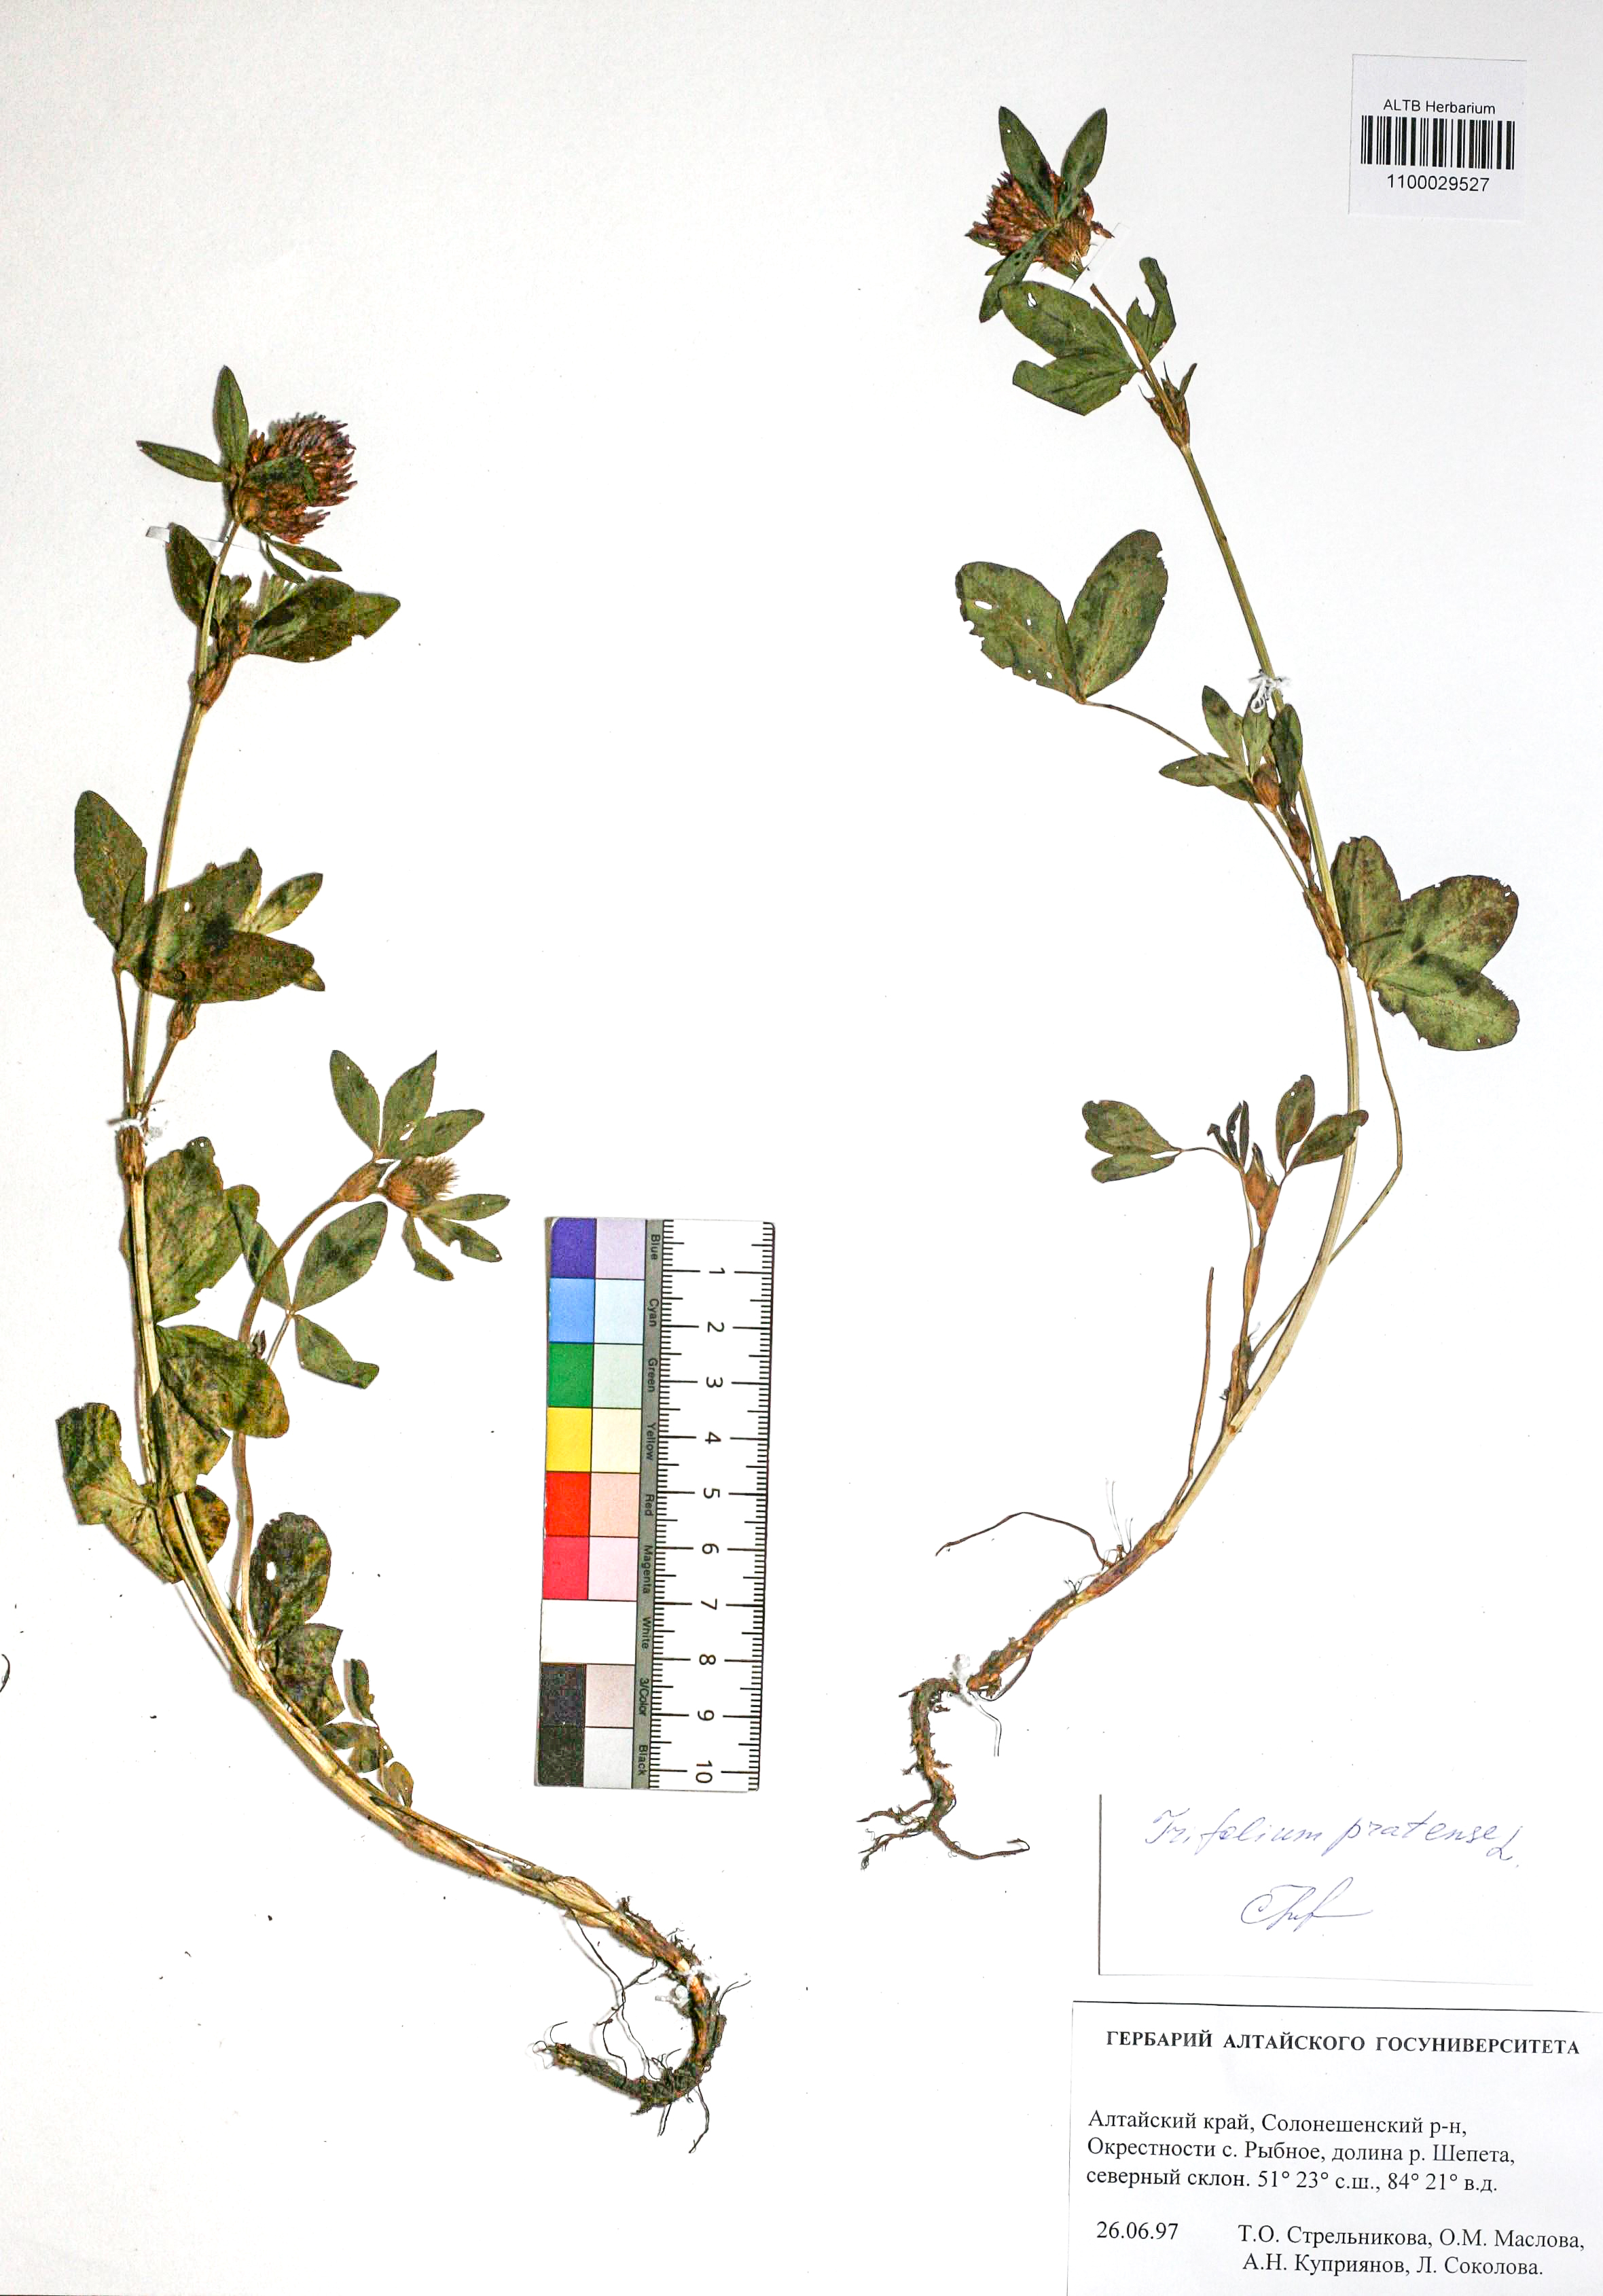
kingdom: Plantae
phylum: Tracheophyta
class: Magnoliopsida
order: Fabales
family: Fabaceae
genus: Trifolium
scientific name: Trifolium pratense
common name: Red clover
